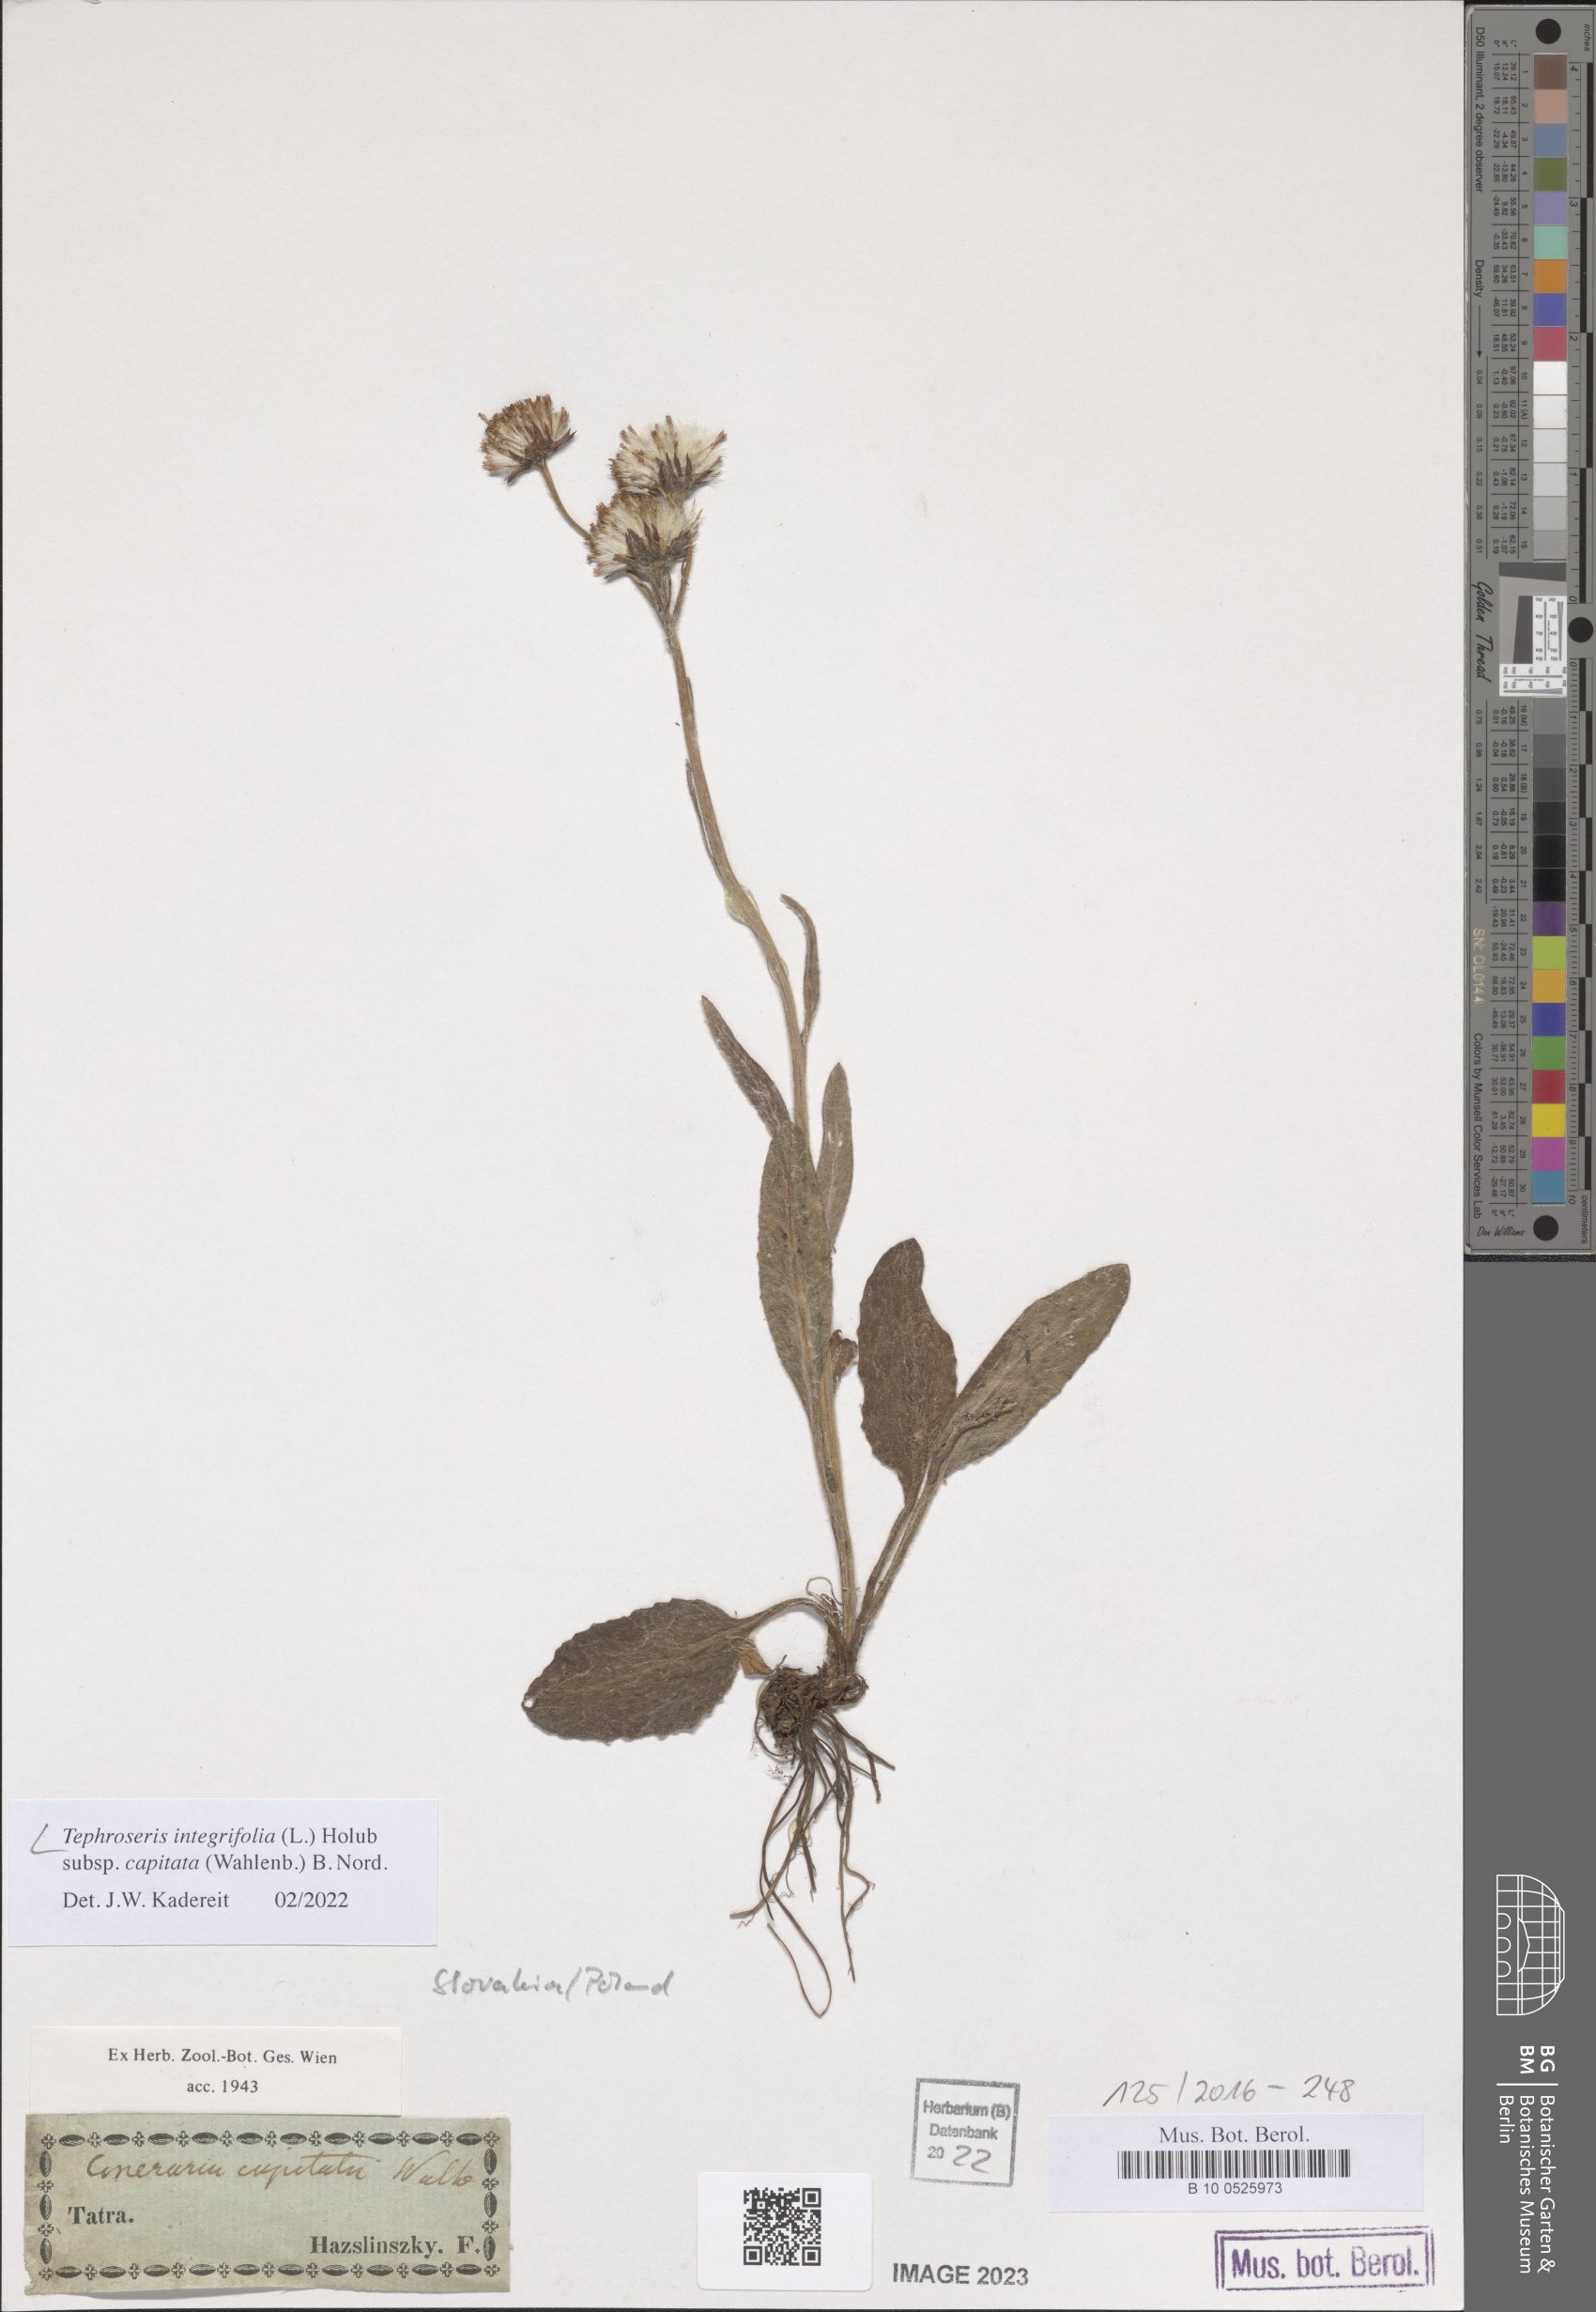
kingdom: Plantae
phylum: Tracheophyta
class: Magnoliopsida
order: Asterales
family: Asteraceae
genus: Tephroseris
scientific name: Tephroseris integrifolia
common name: Field fleawort
